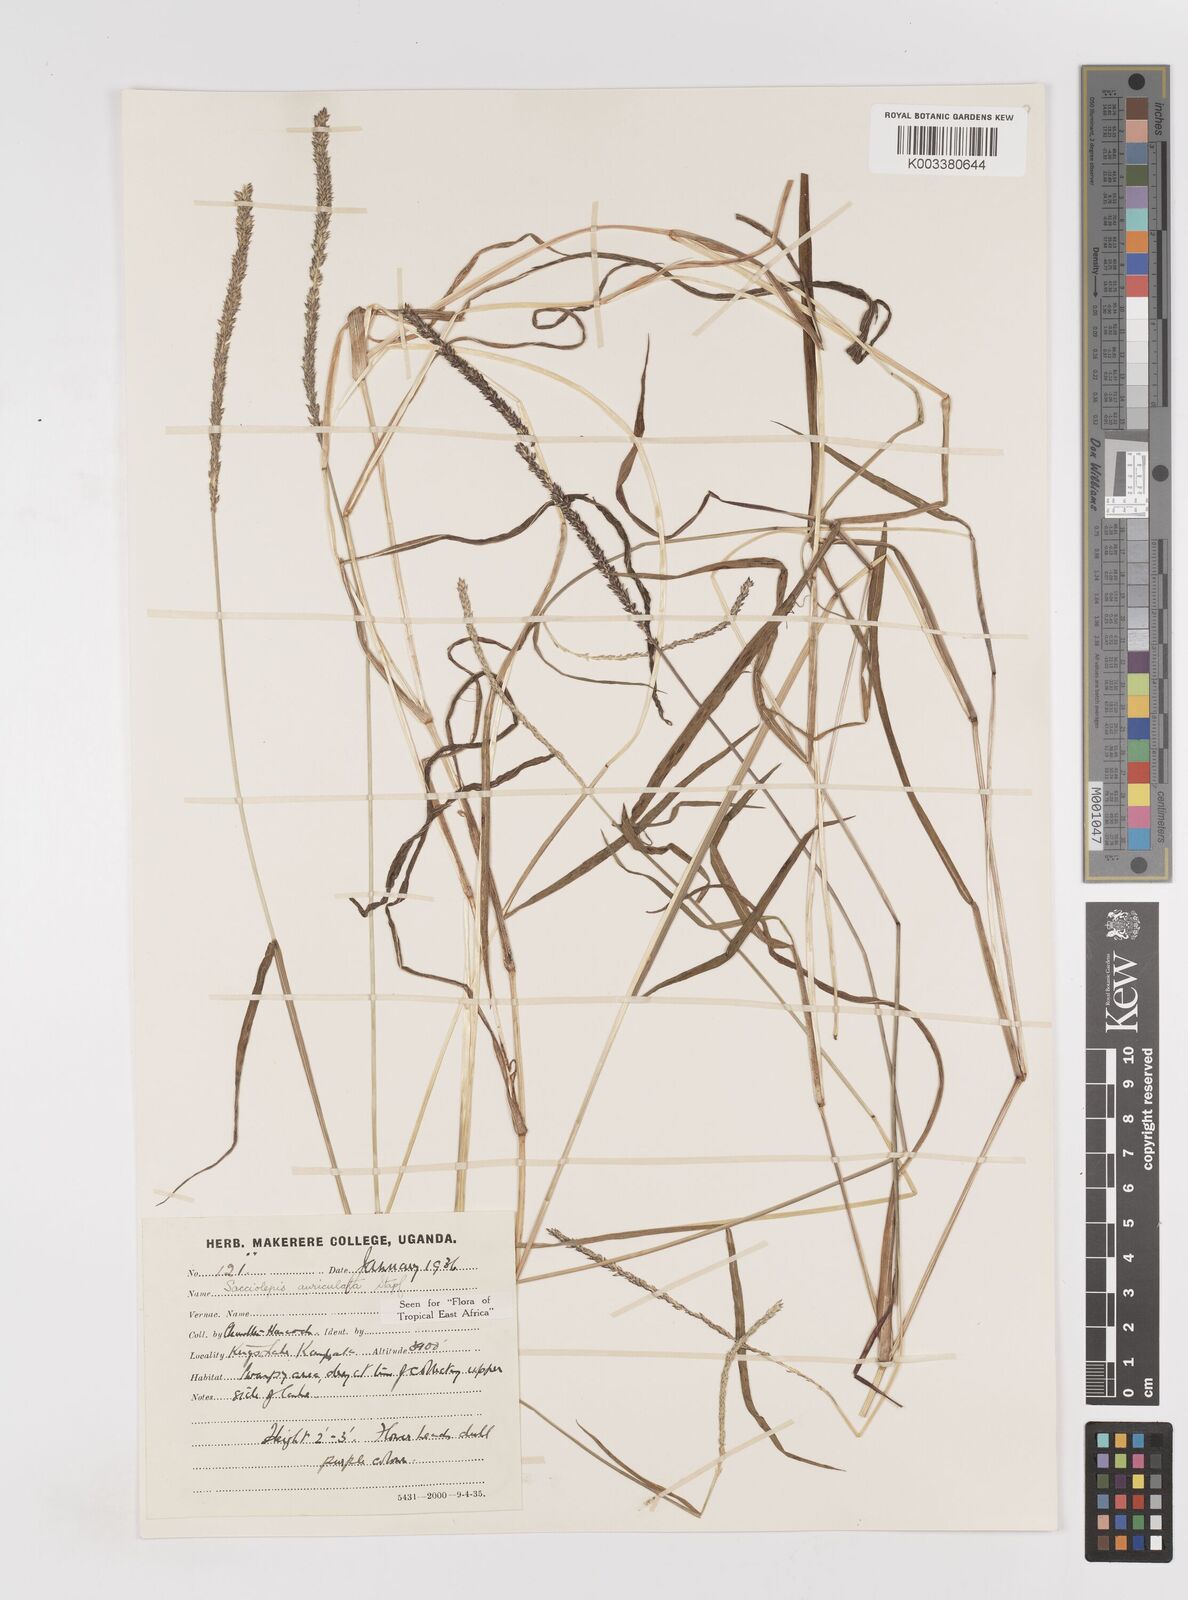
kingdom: Plantae
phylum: Tracheophyta
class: Liliopsida
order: Poales
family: Poaceae
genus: Sacciolepis
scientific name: Sacciolepis indica
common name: Glenwoodgrass
